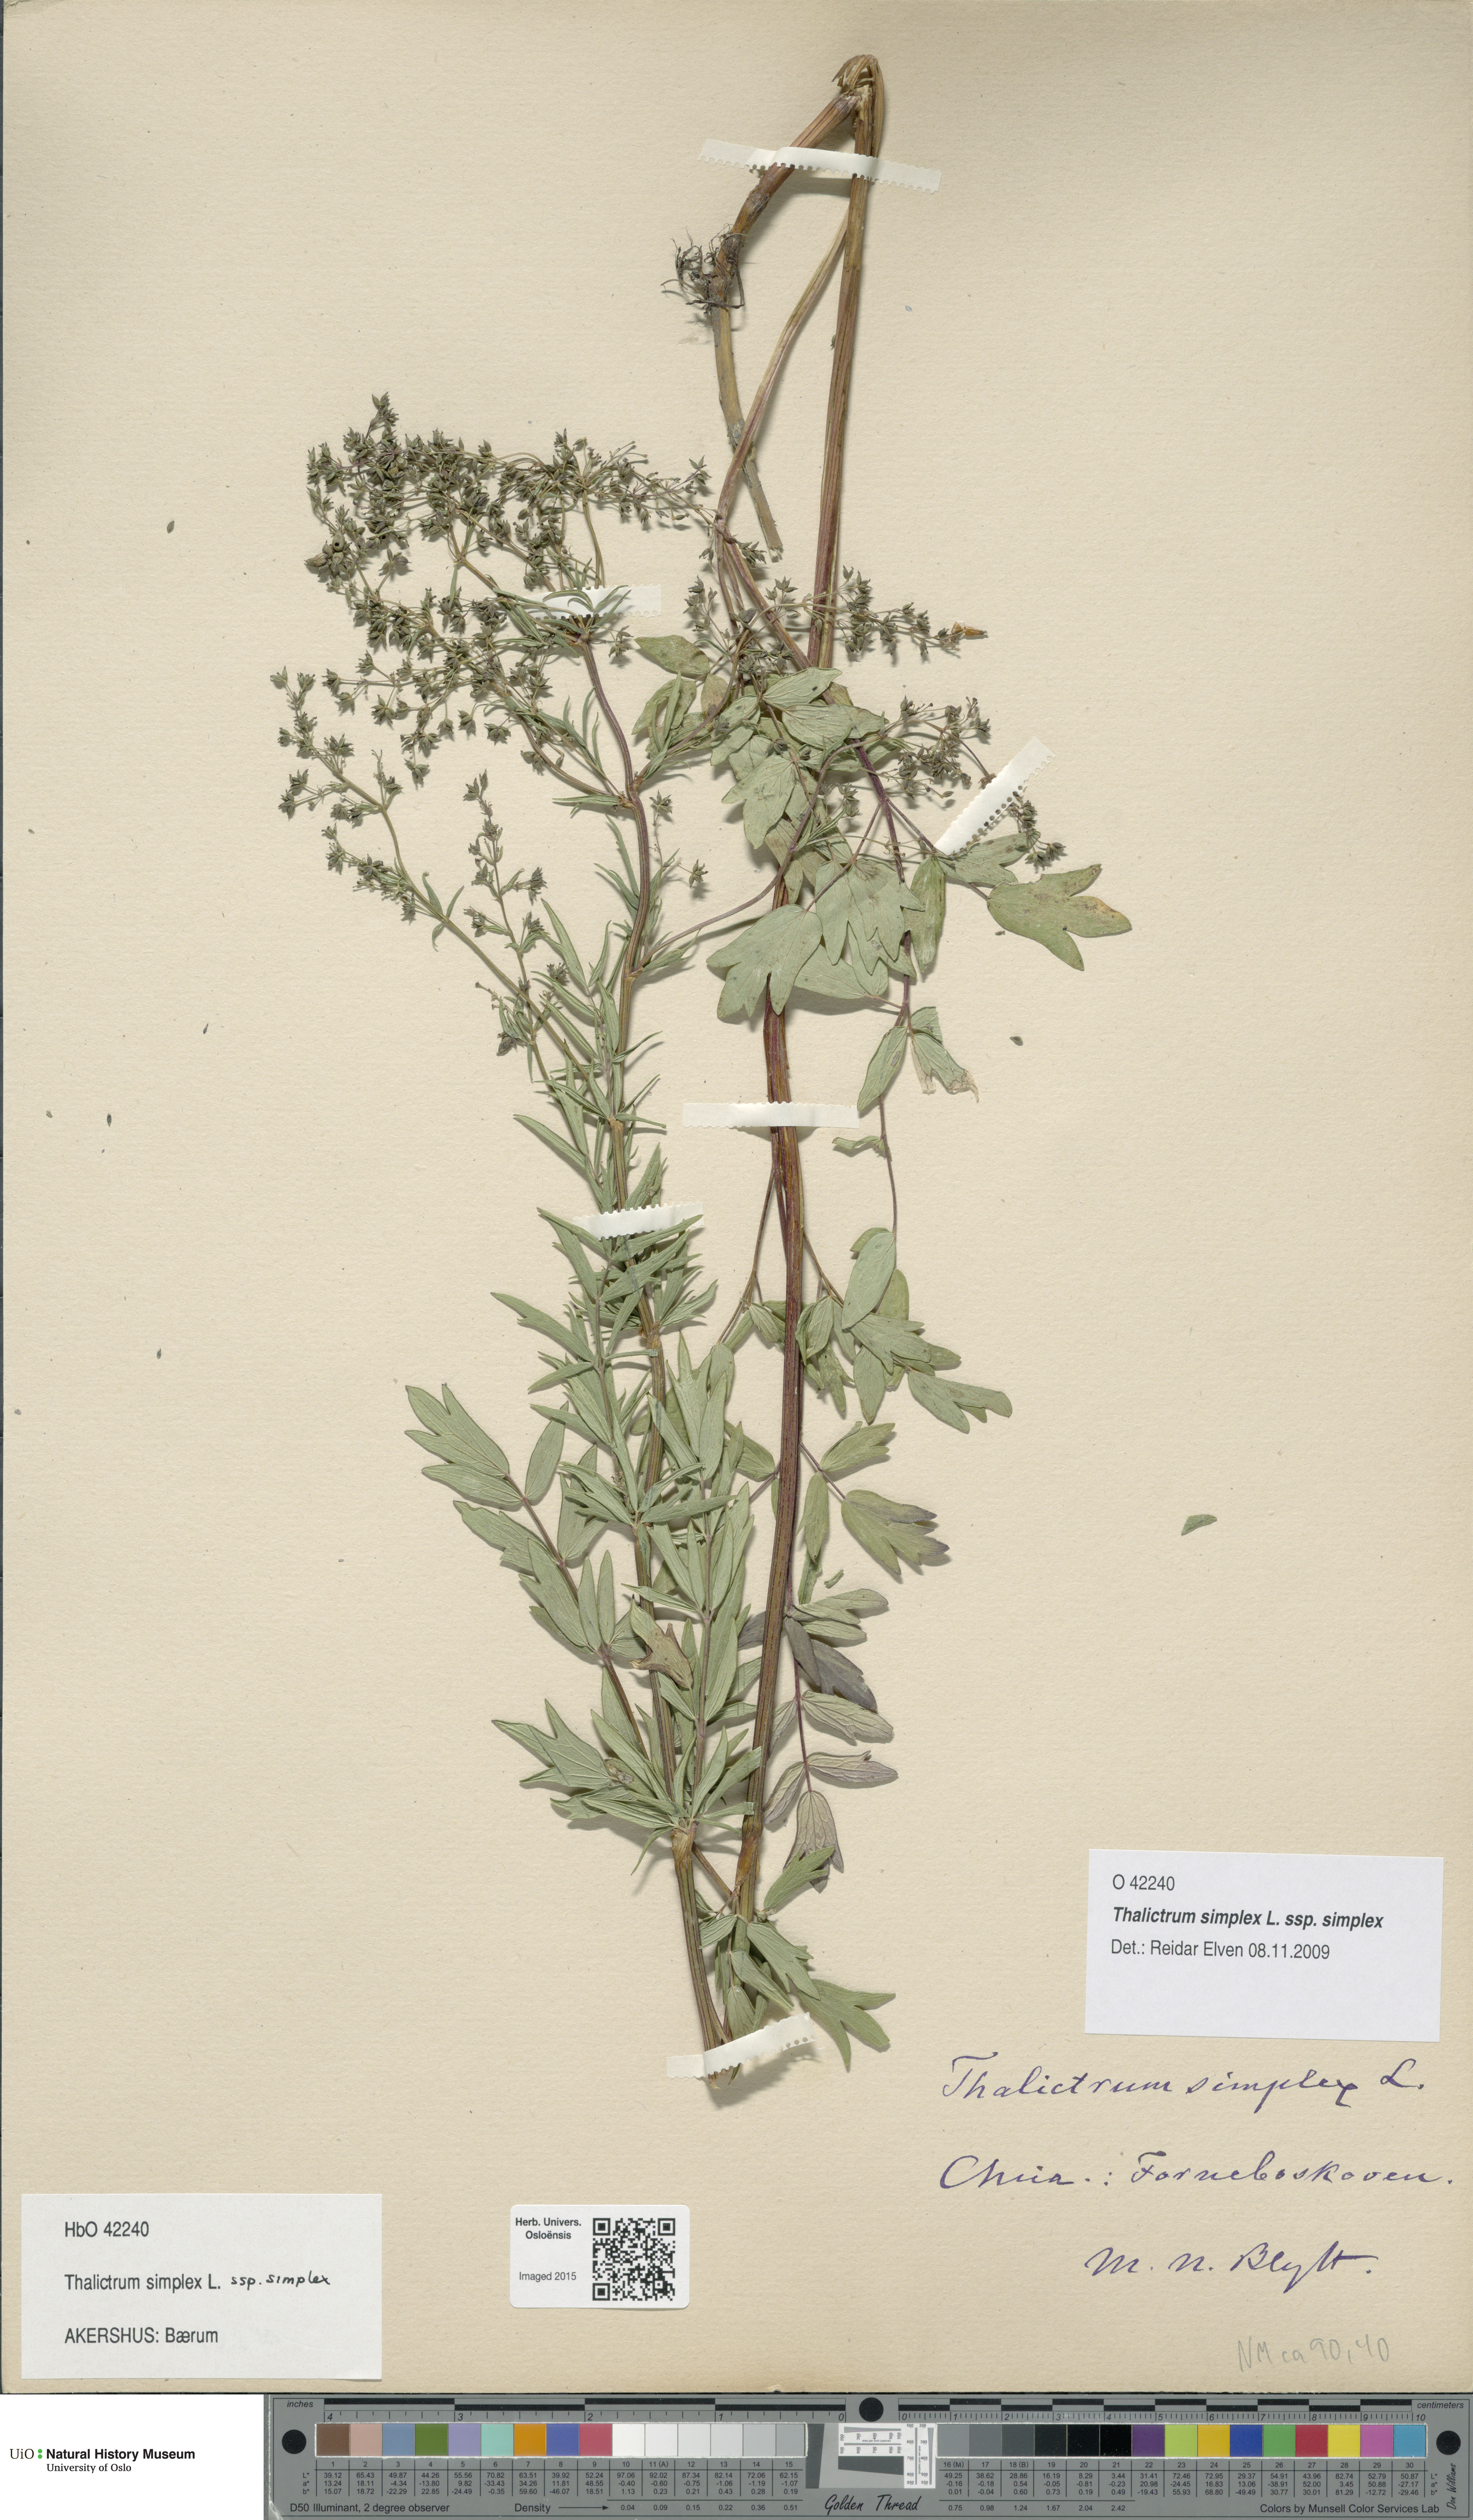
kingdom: Plantae
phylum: Tracheophyta
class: Magnoliopsida
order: Ranunculales
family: Ranunculaceae
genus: Thalictrum
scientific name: Thalictrum simplex
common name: Small meadow-rue
